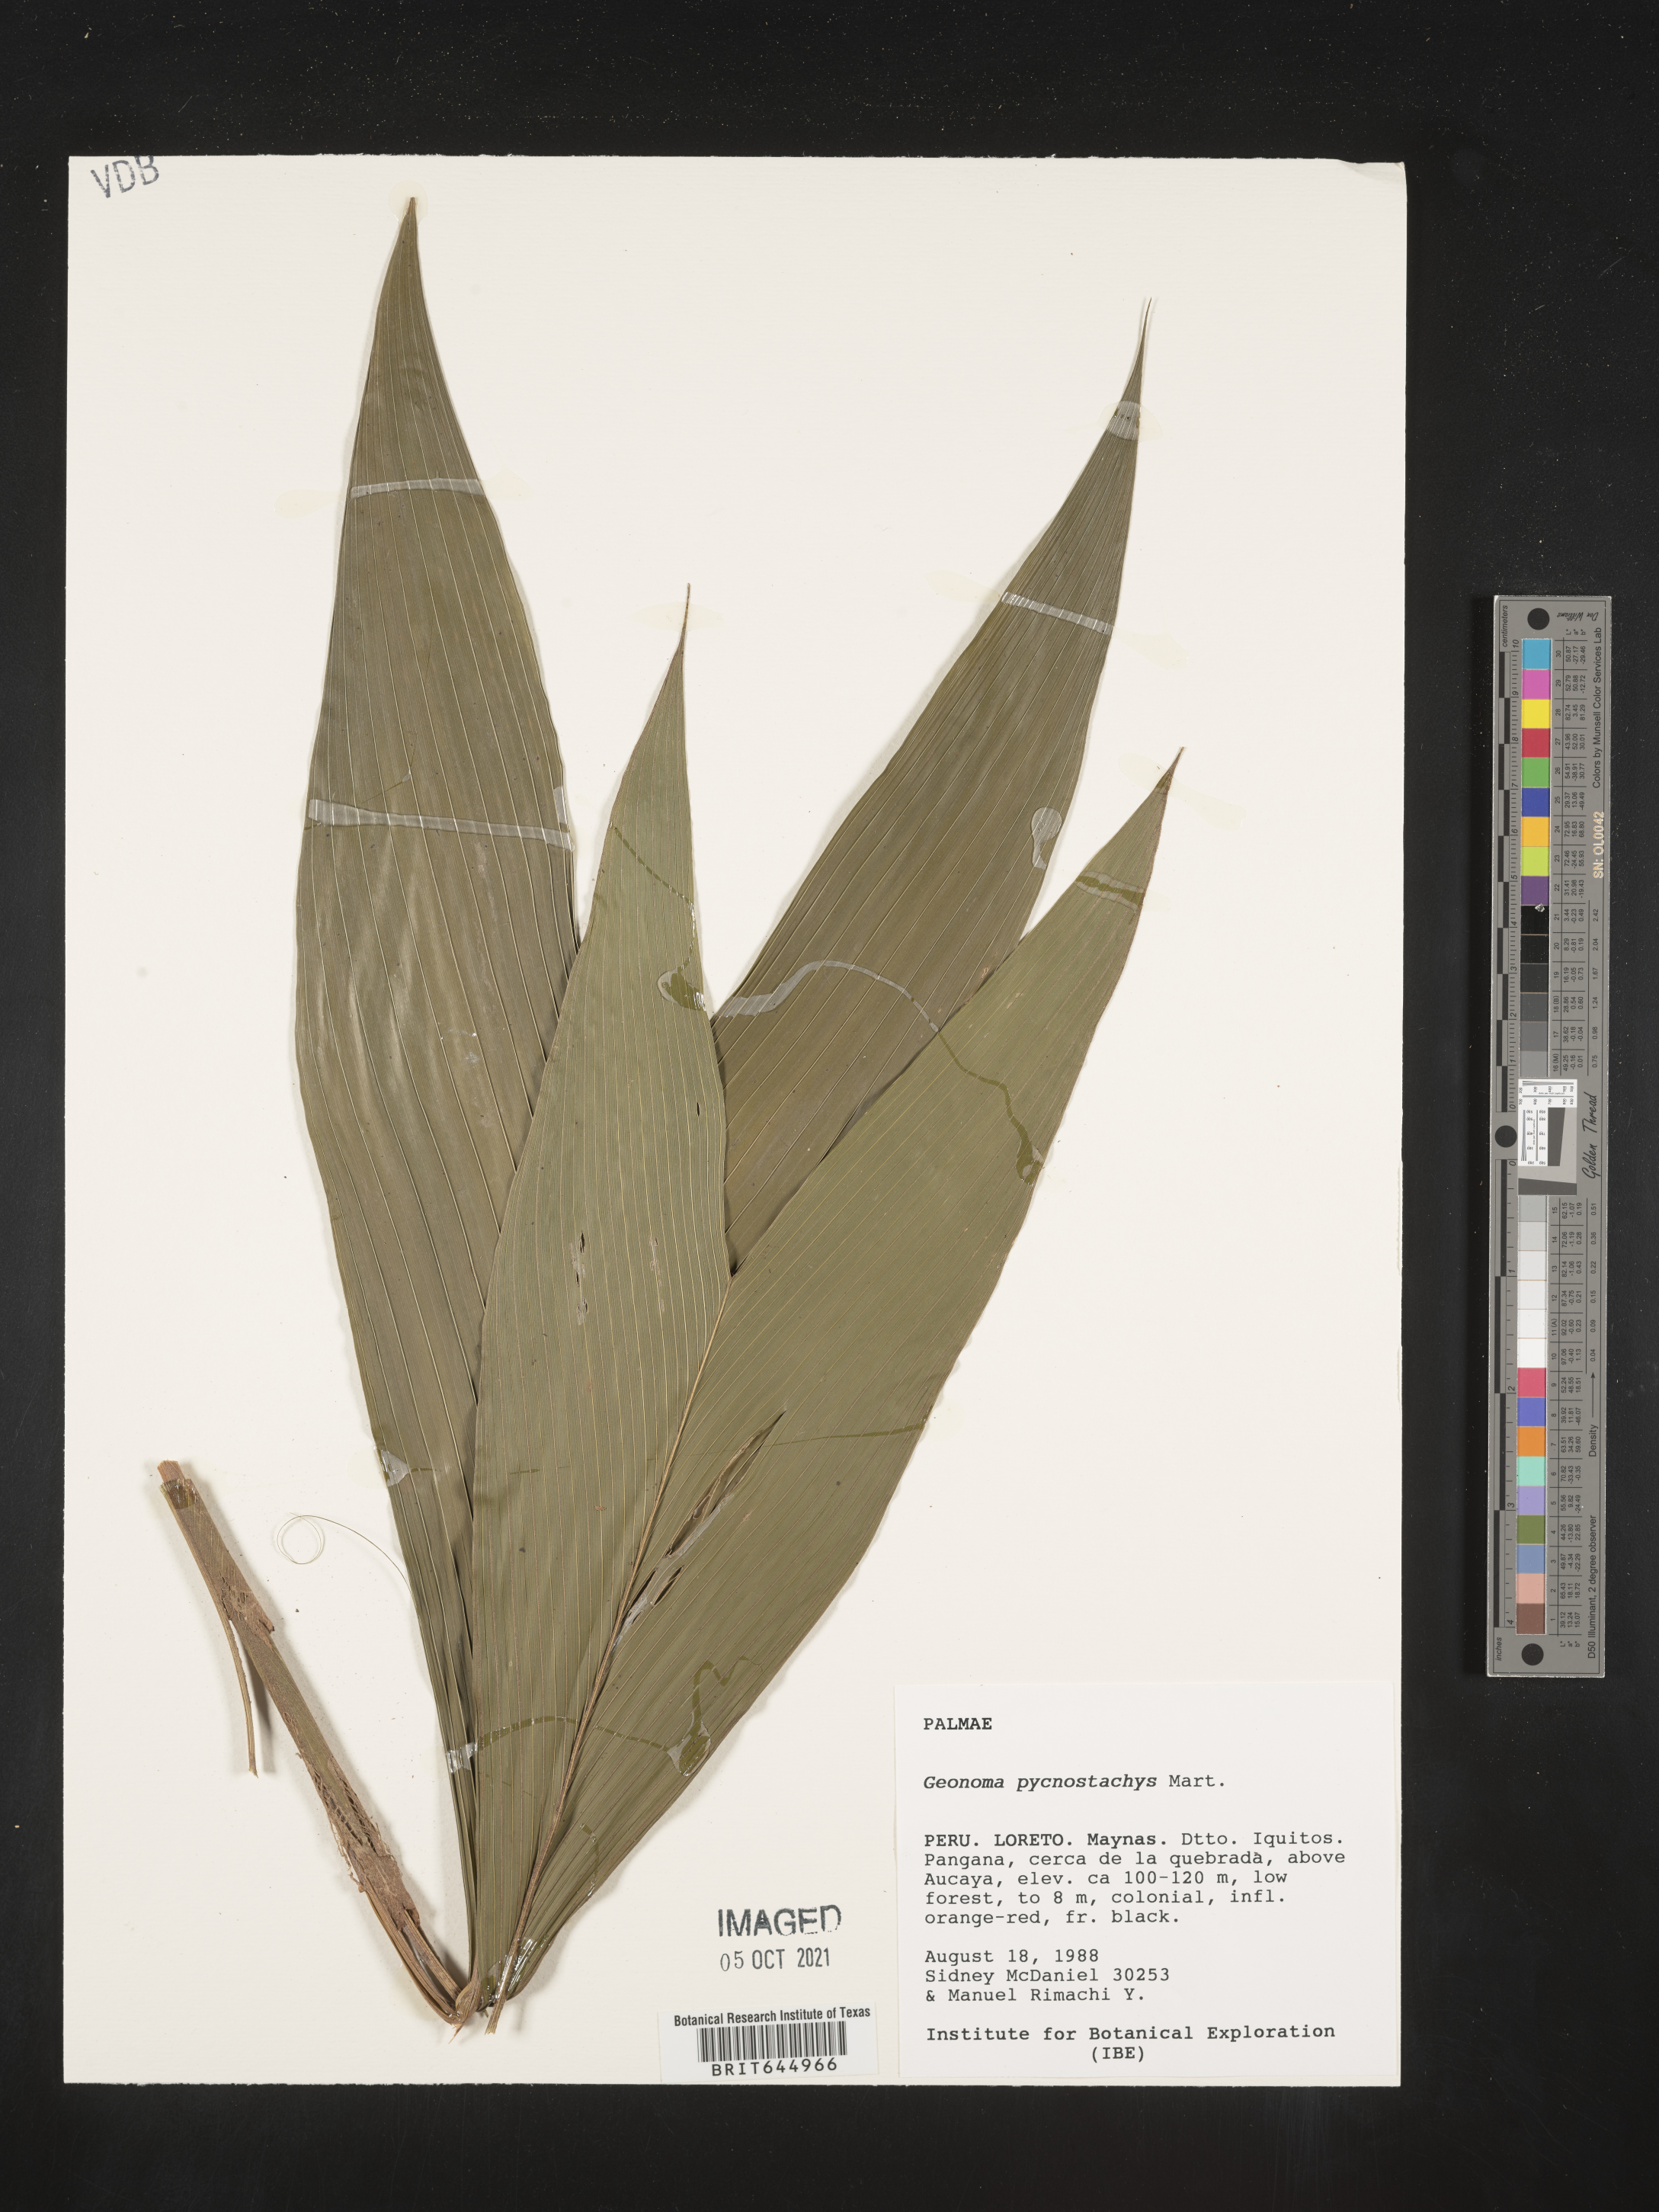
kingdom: Plantae
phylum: Tracheophyta
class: Liliopsida
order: Arecales
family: Arecaceae
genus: Geonoma
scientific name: Geonoma stricta
